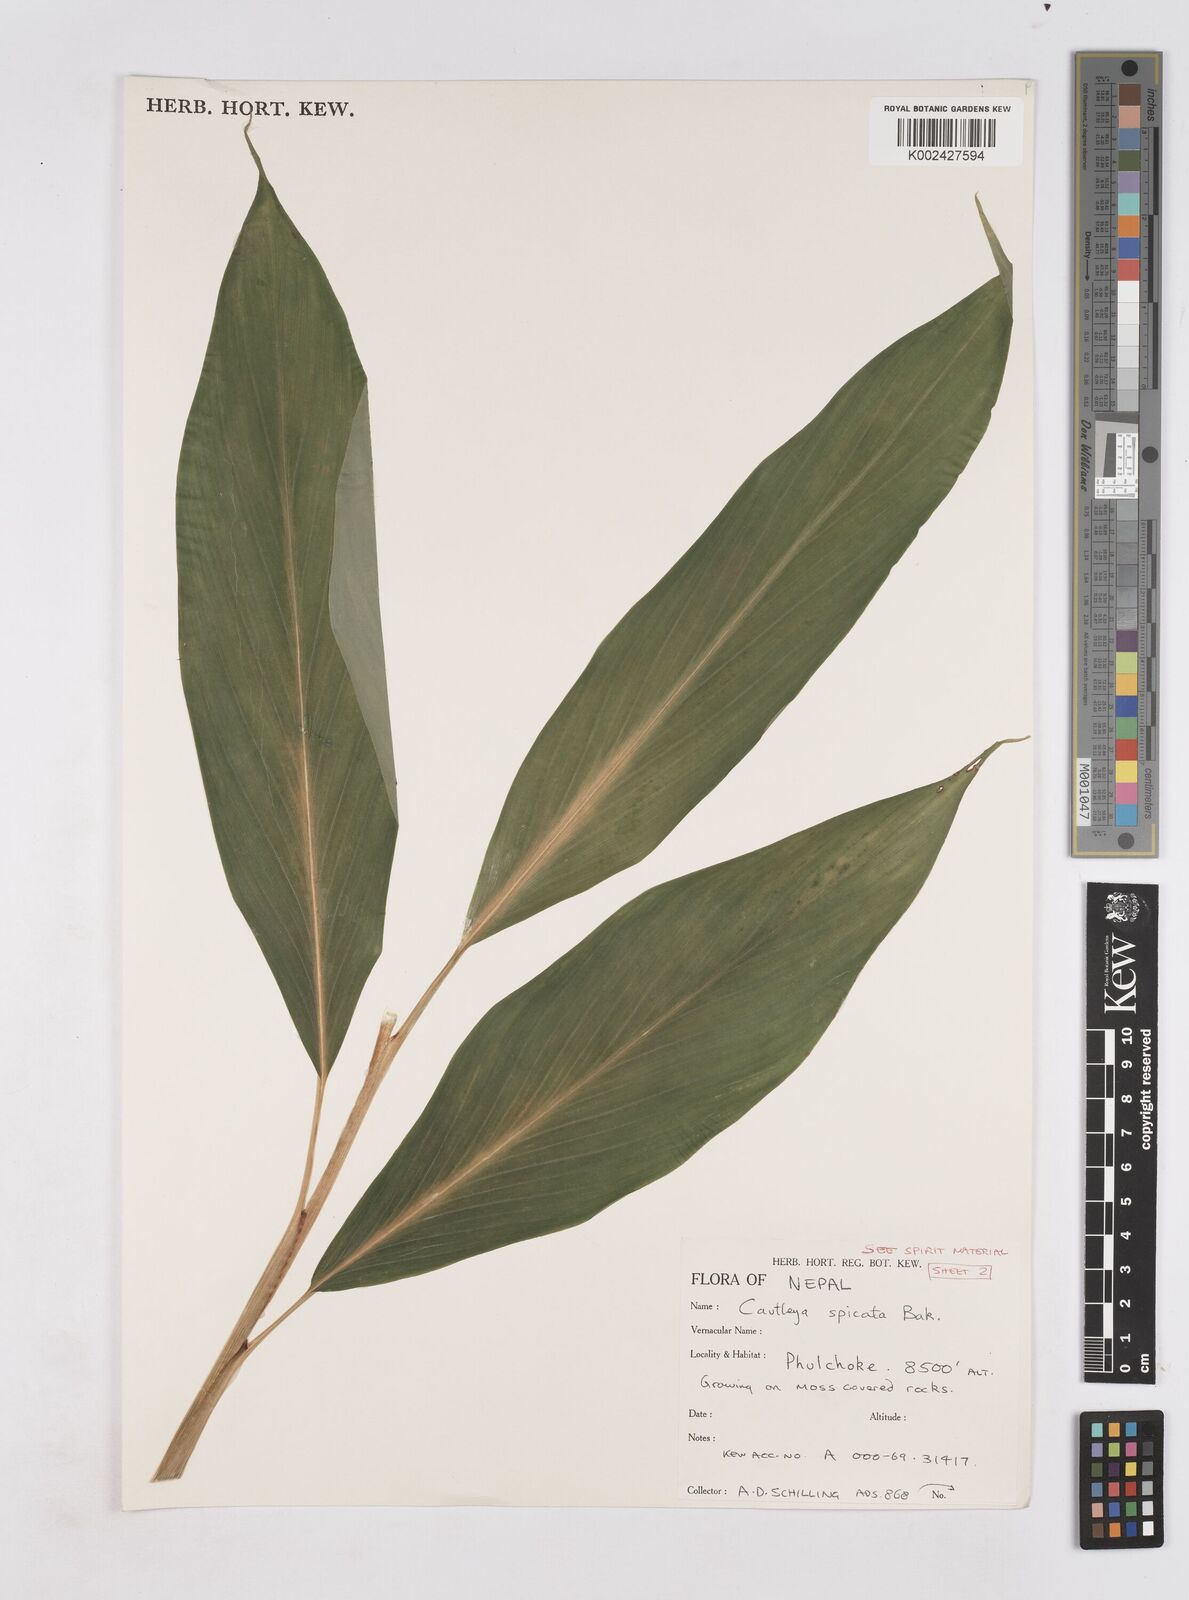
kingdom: Plantae
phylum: Tracheophyta
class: Liliopsida
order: Zingiberales
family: Zingiberaceae
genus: Cautleya
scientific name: Cautleya spicata
